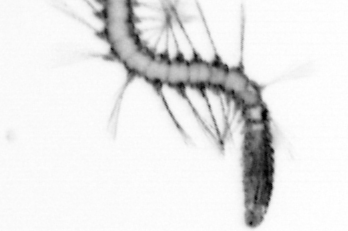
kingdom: Animalia
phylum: Annelida
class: Polychaeta
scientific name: Polychaeta
